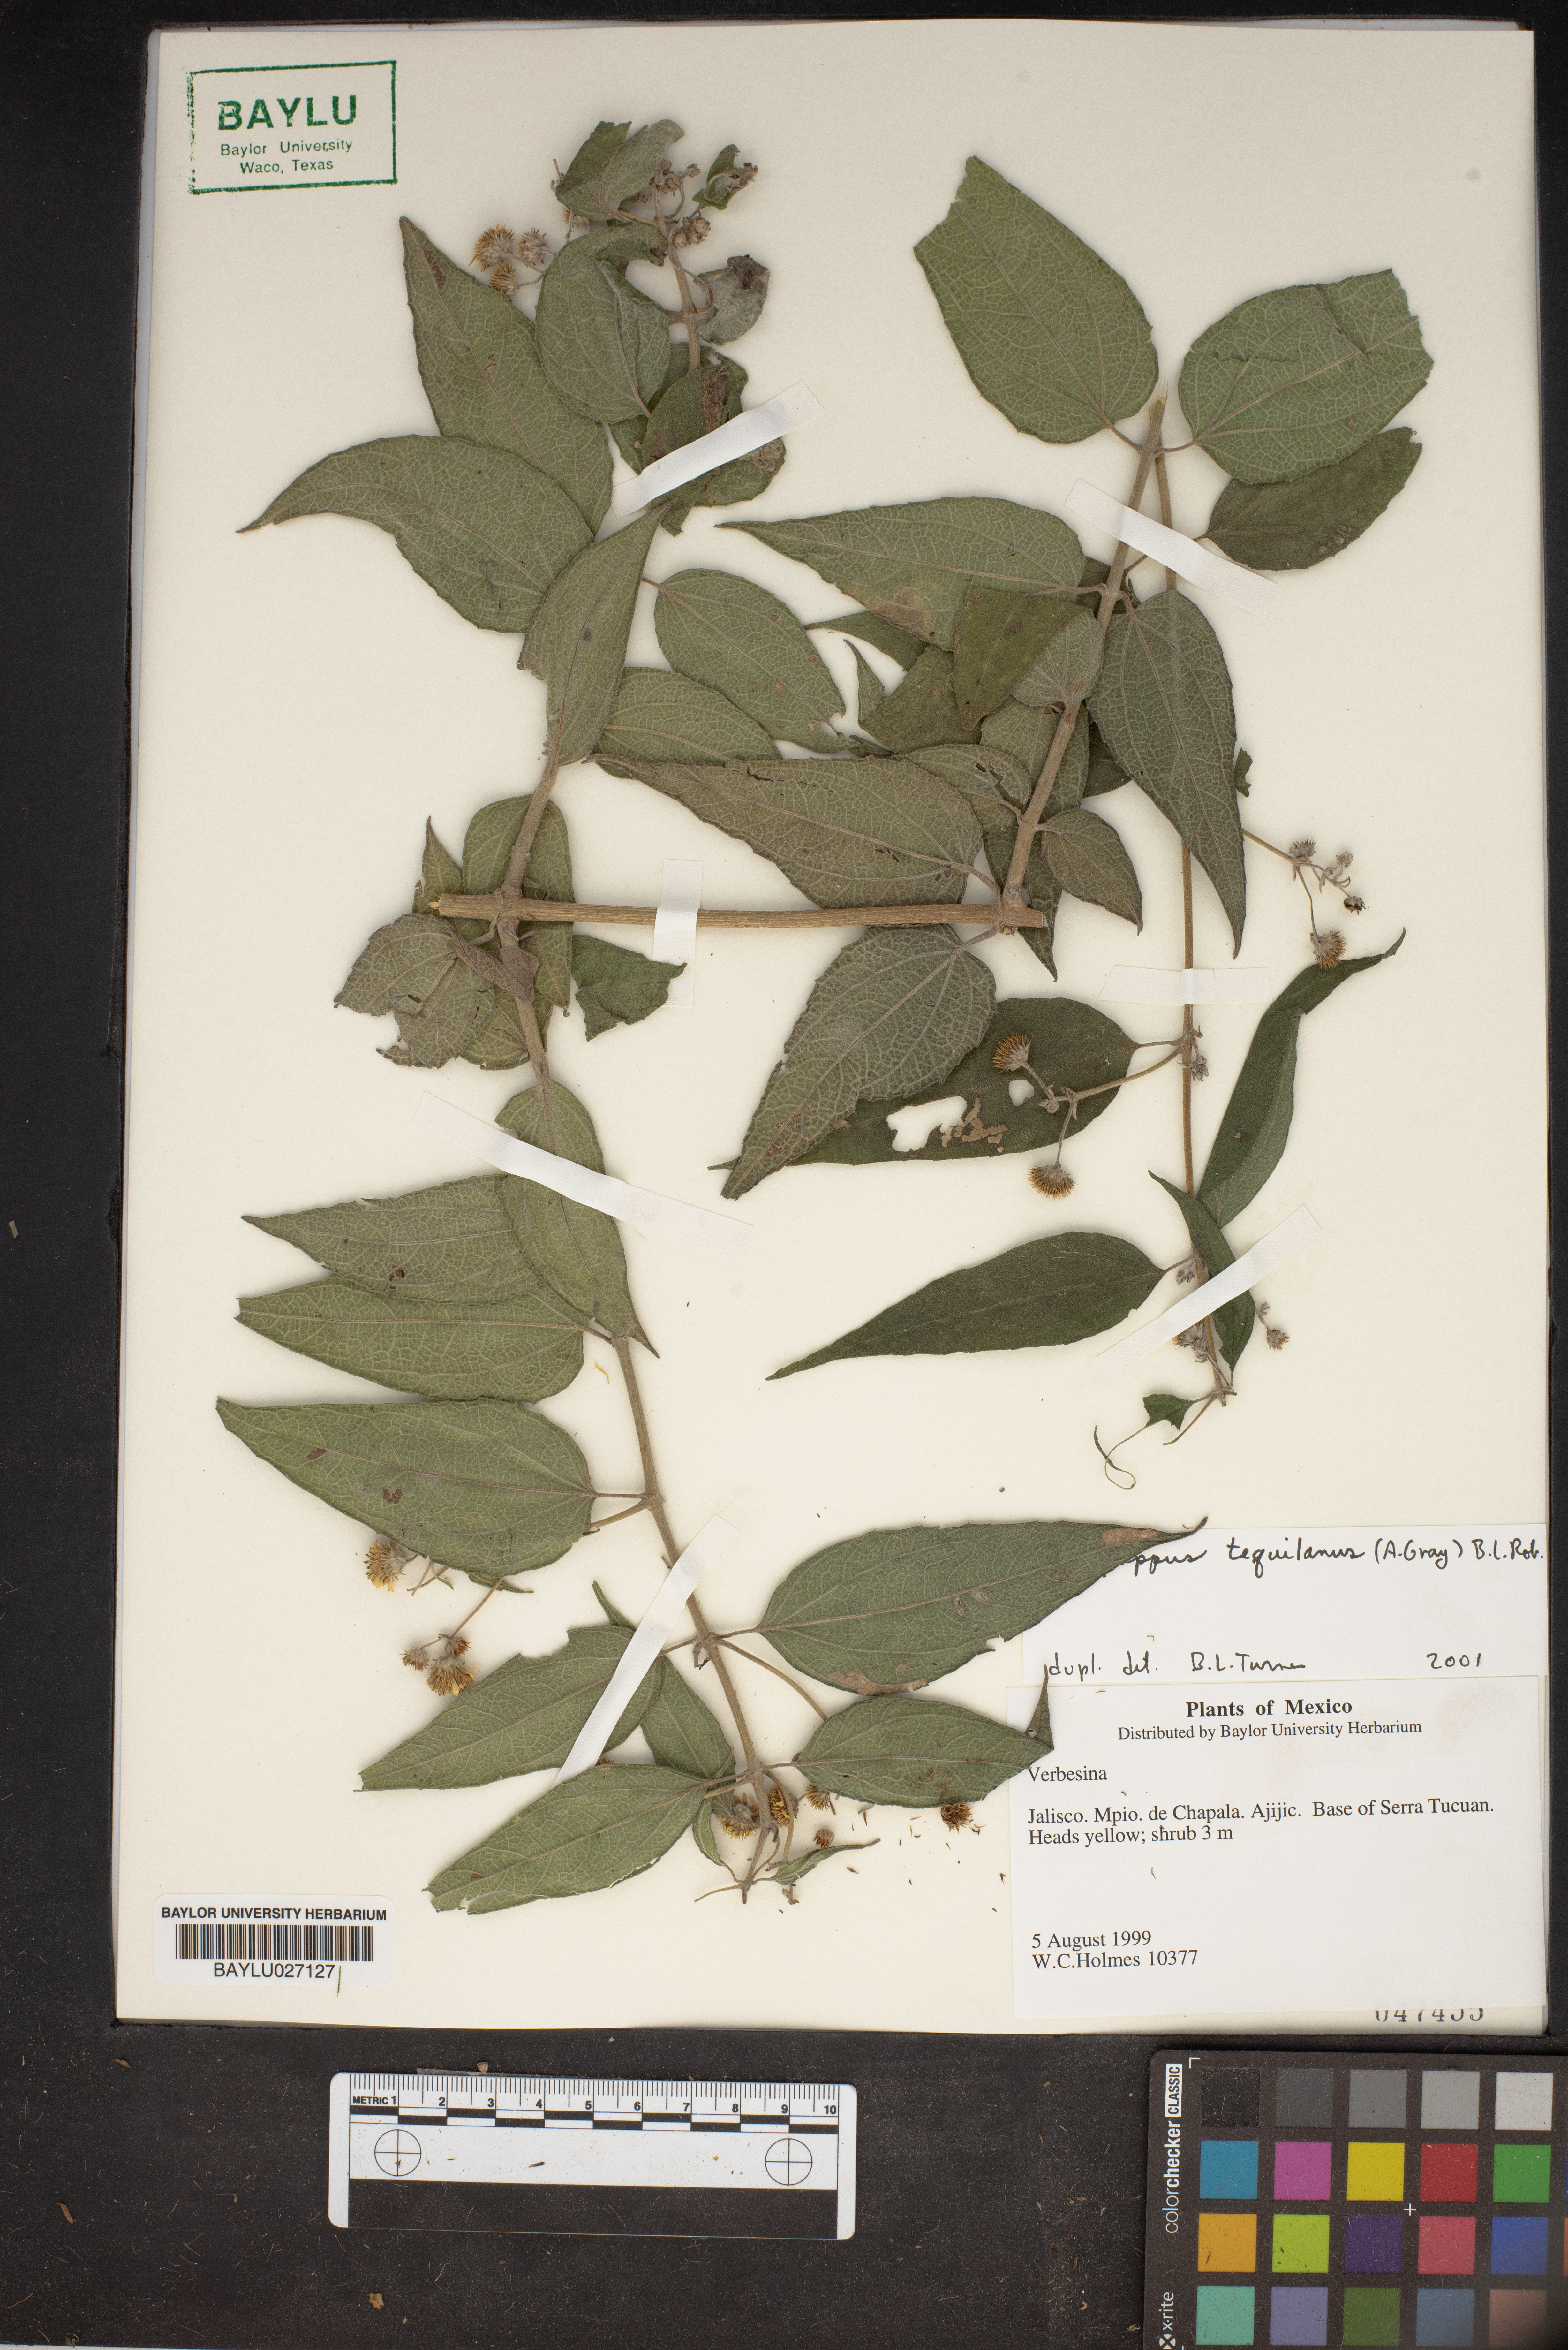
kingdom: Plantae
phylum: Tracheophyta
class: Magnoliopsida
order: Asterales
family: Asteraceae
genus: Verbesina
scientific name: Verbesina
